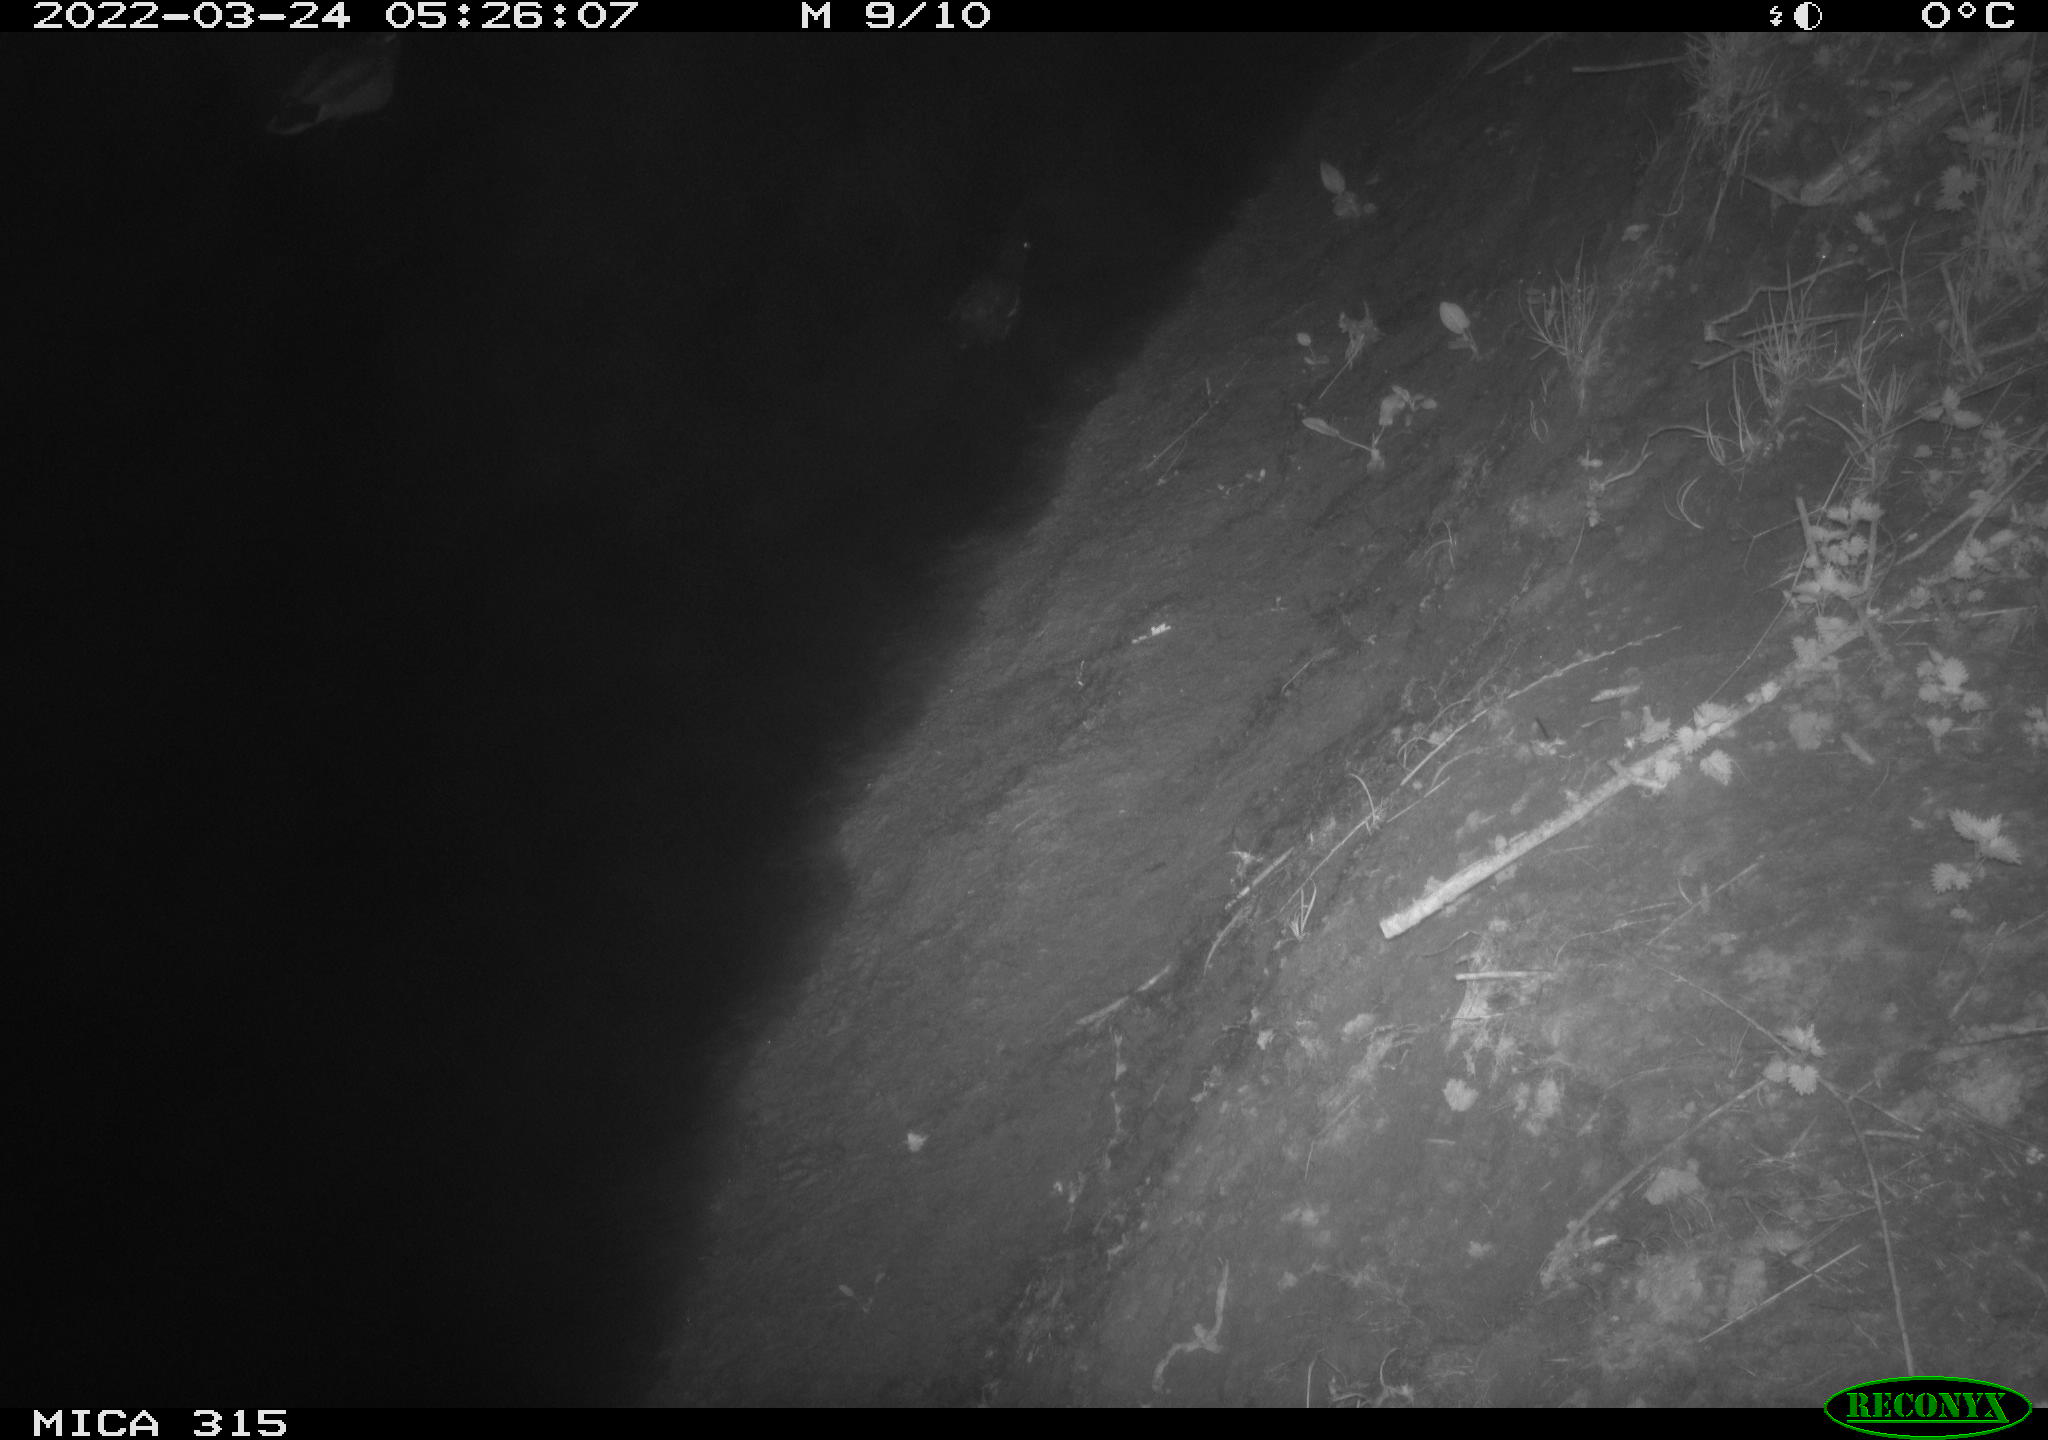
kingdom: Animalia
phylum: Chordata
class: Aves
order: Anseriformes
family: Anatidae
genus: Anas
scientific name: Anas platyrhynchos
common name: Mallard
